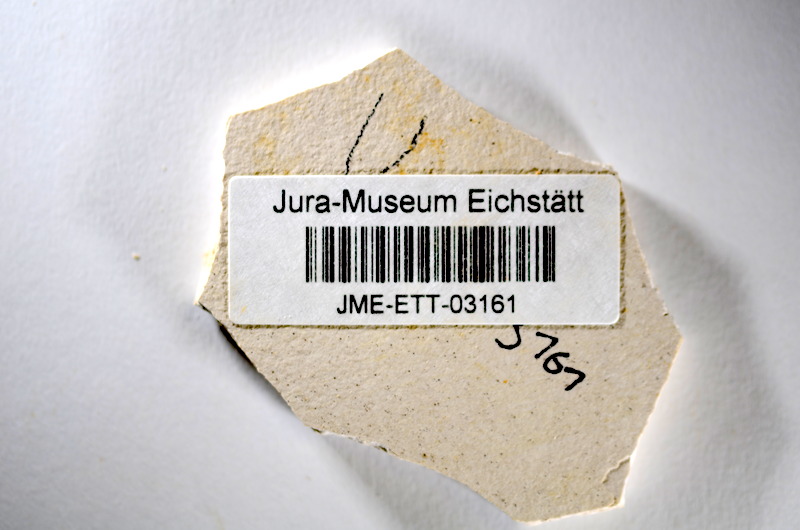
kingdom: Animalia
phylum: Chordata
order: Salmoniformes
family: Orthogonikleithridae
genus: Orthogonikleithrus
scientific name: Orthogonikleithrus hoelli
